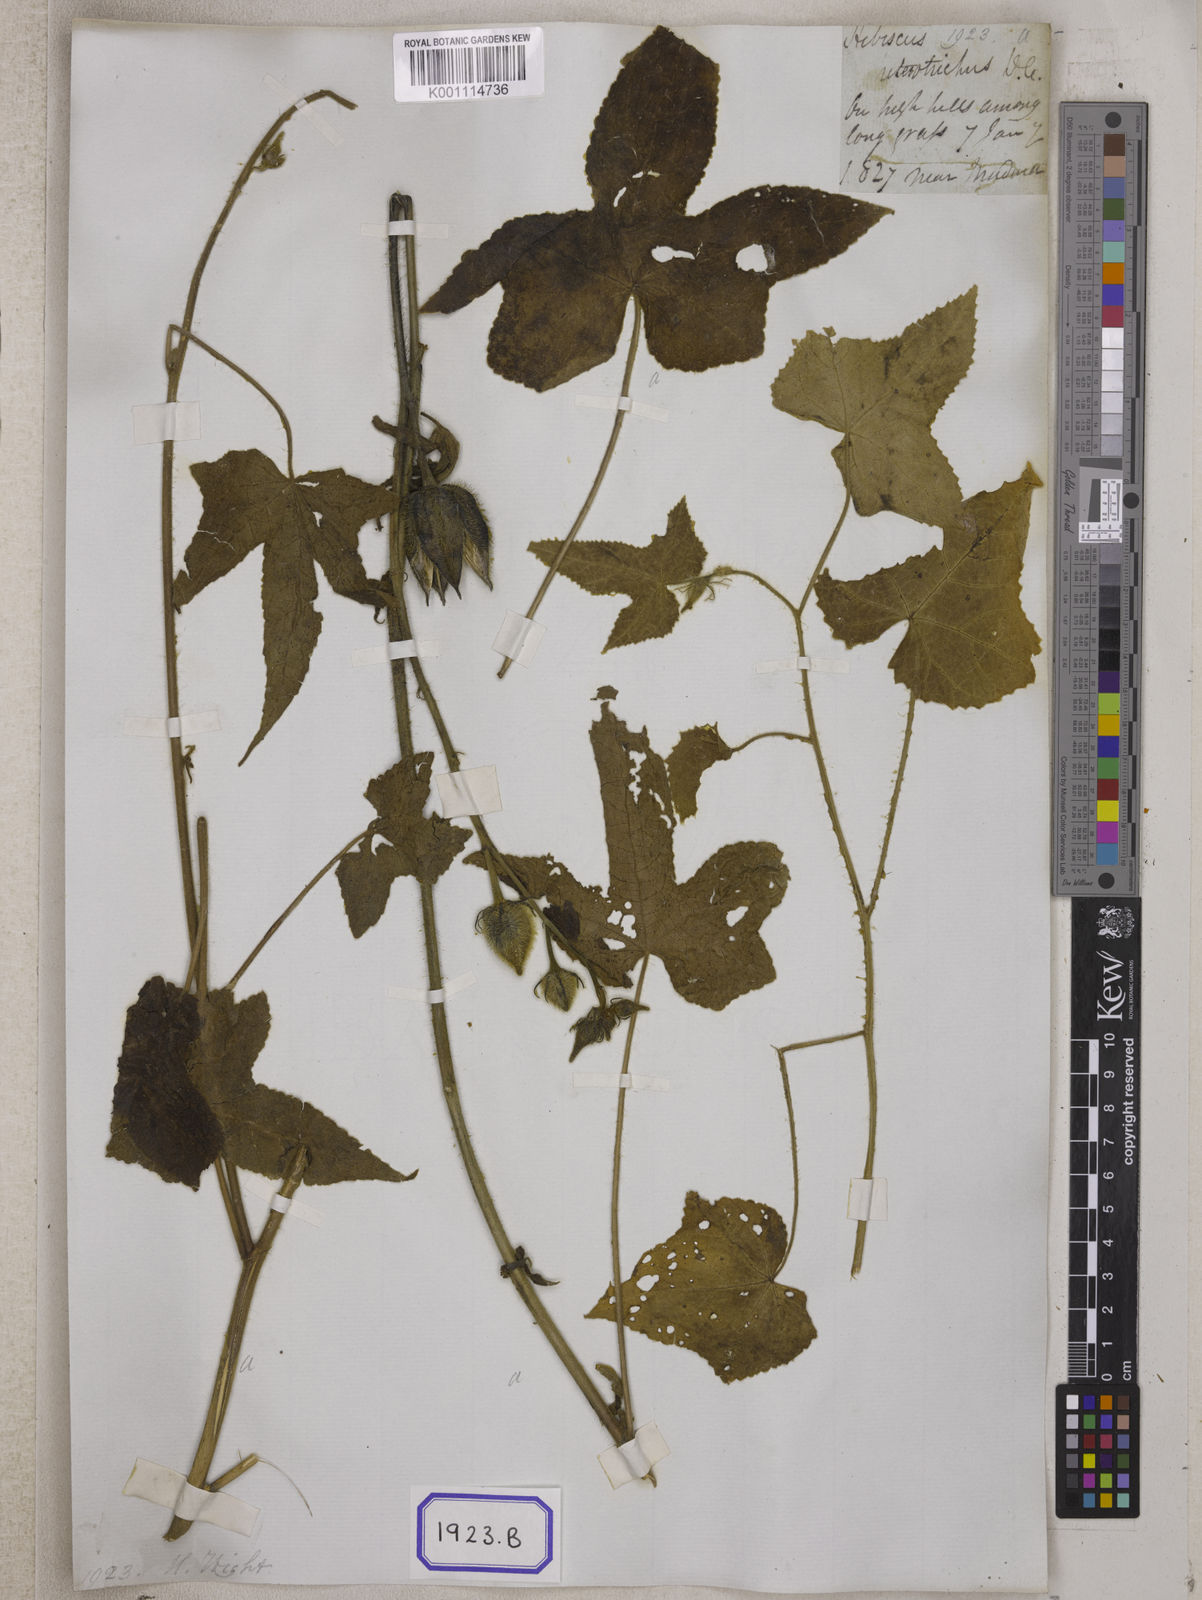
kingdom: Plantae
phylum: Tracheophyta
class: Magnoliopsida
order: Malvales
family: Malvaceae
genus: Bamia
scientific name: Bamia
